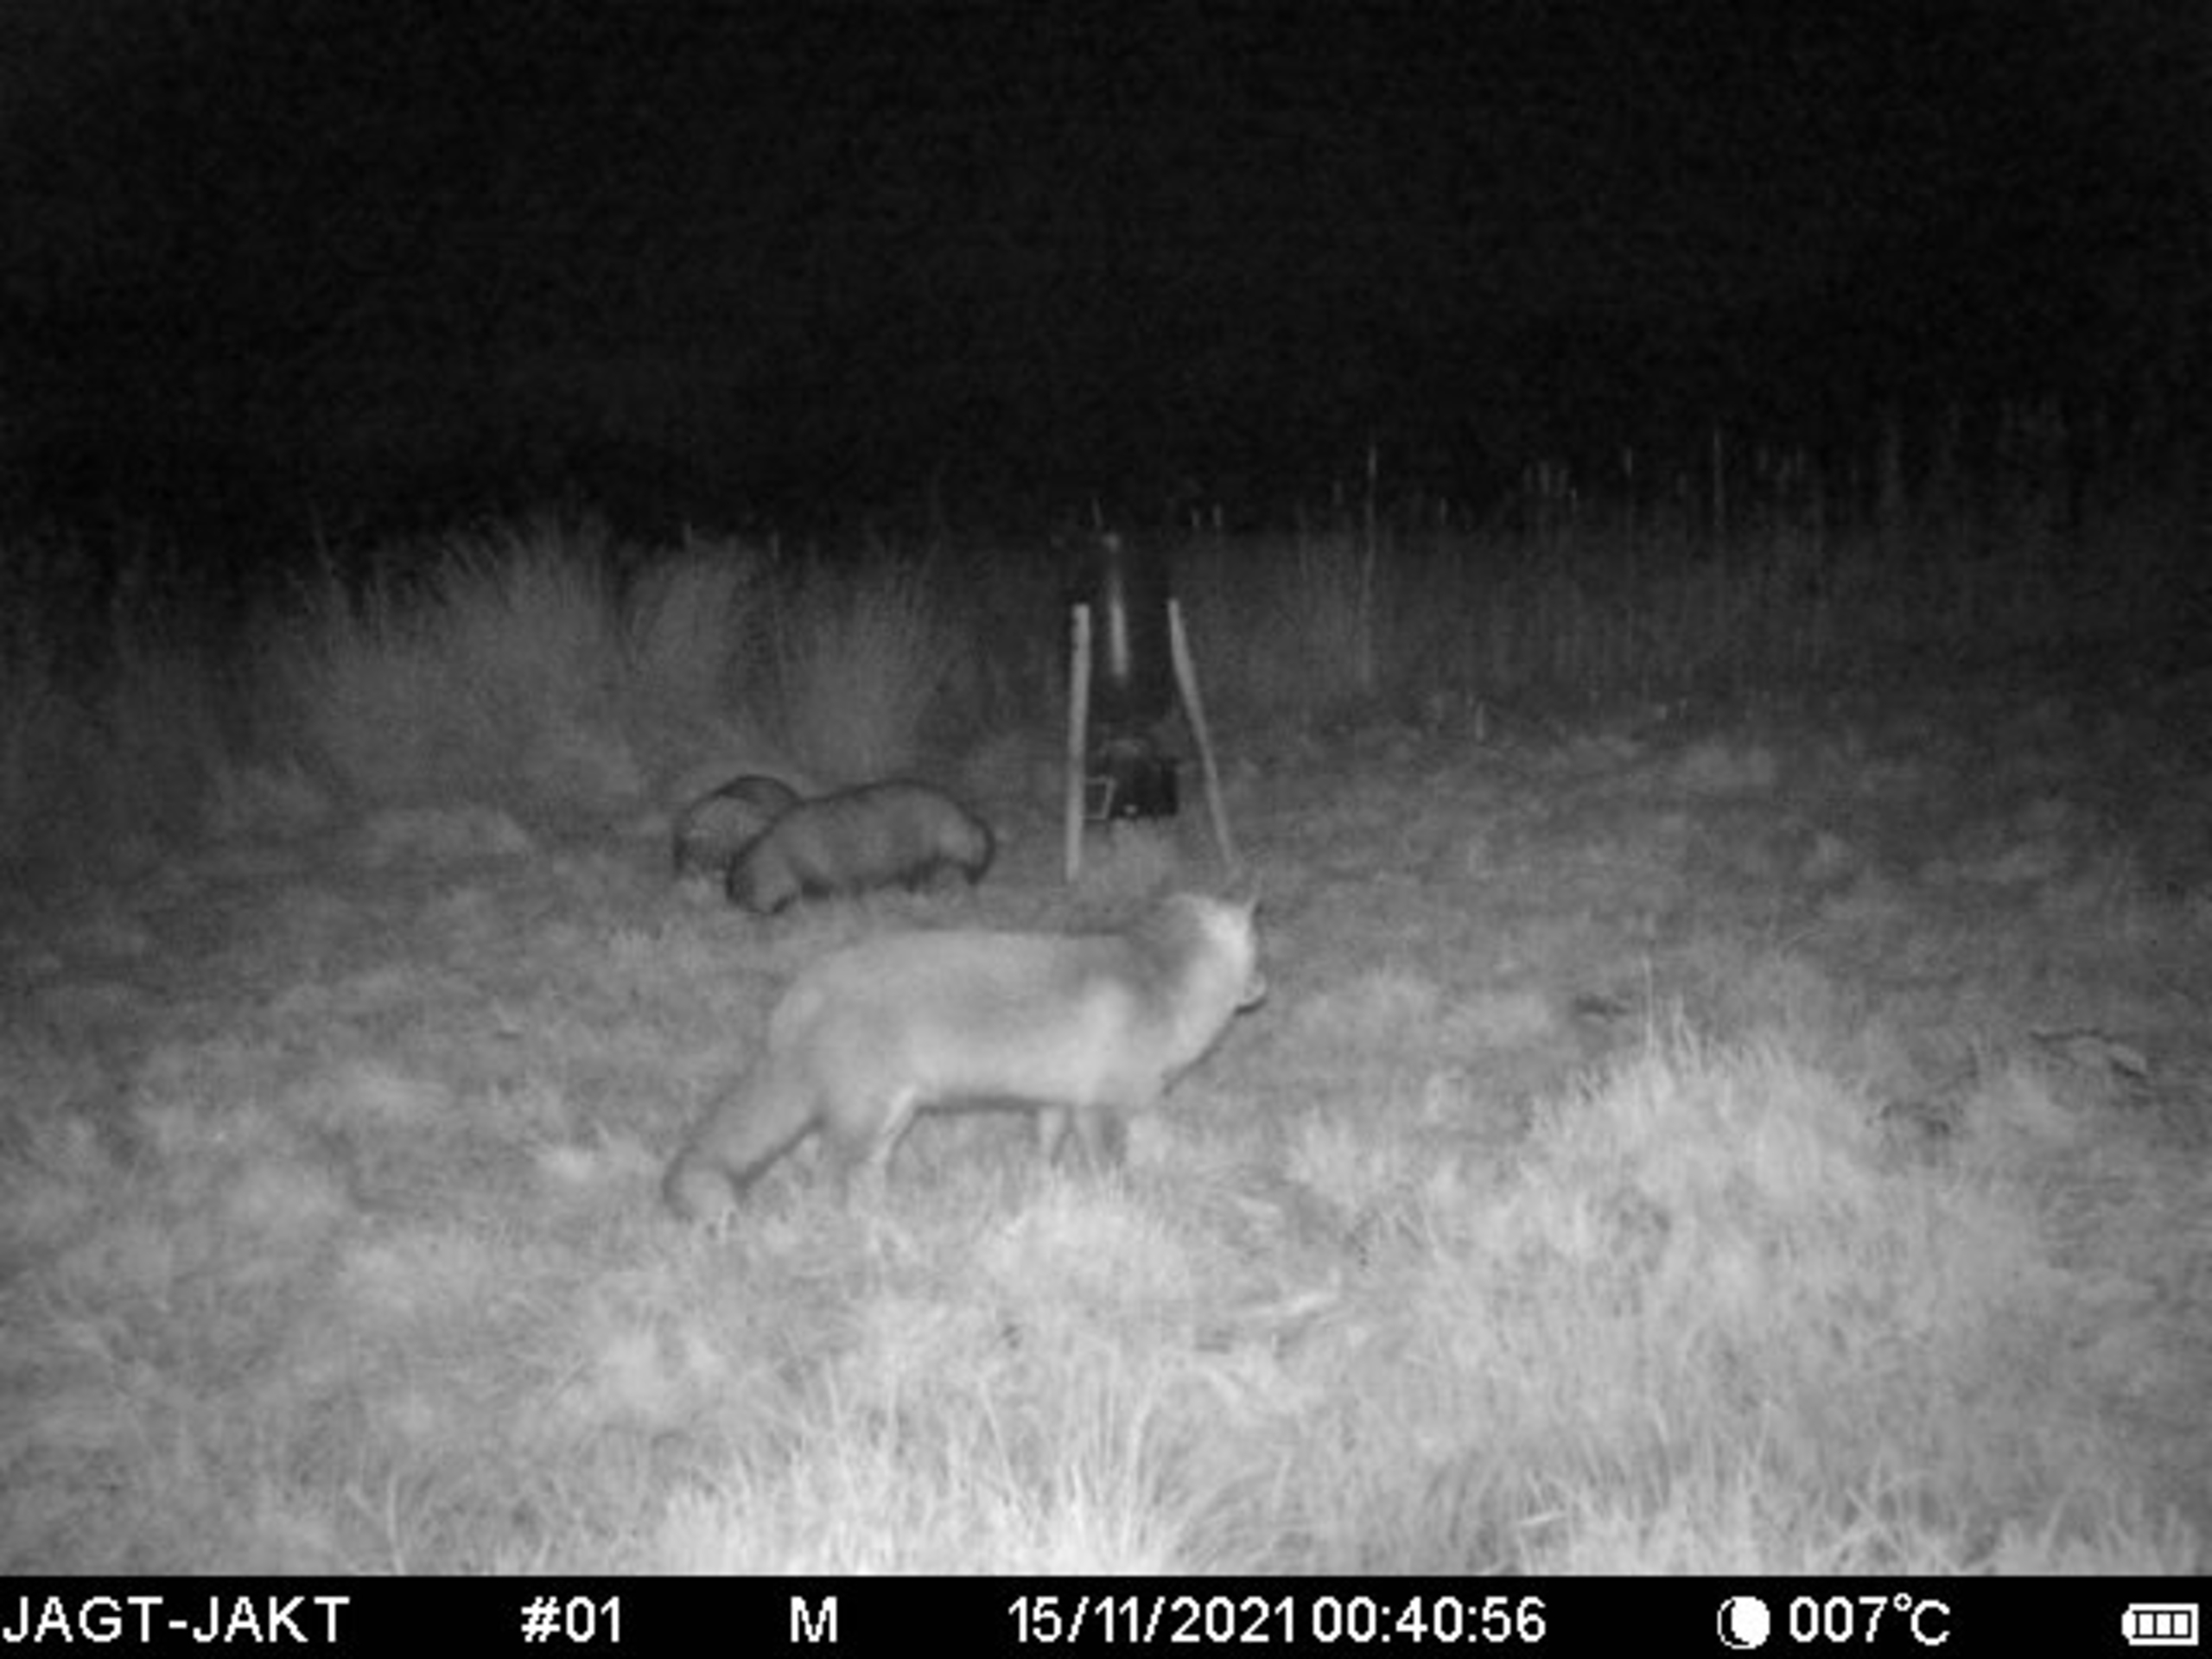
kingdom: Animalia
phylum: Chordata
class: Mammalia
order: Carnivora
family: Canidae
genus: Nyctereutes
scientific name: Nyctereutes procyonoides
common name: Mårhund
